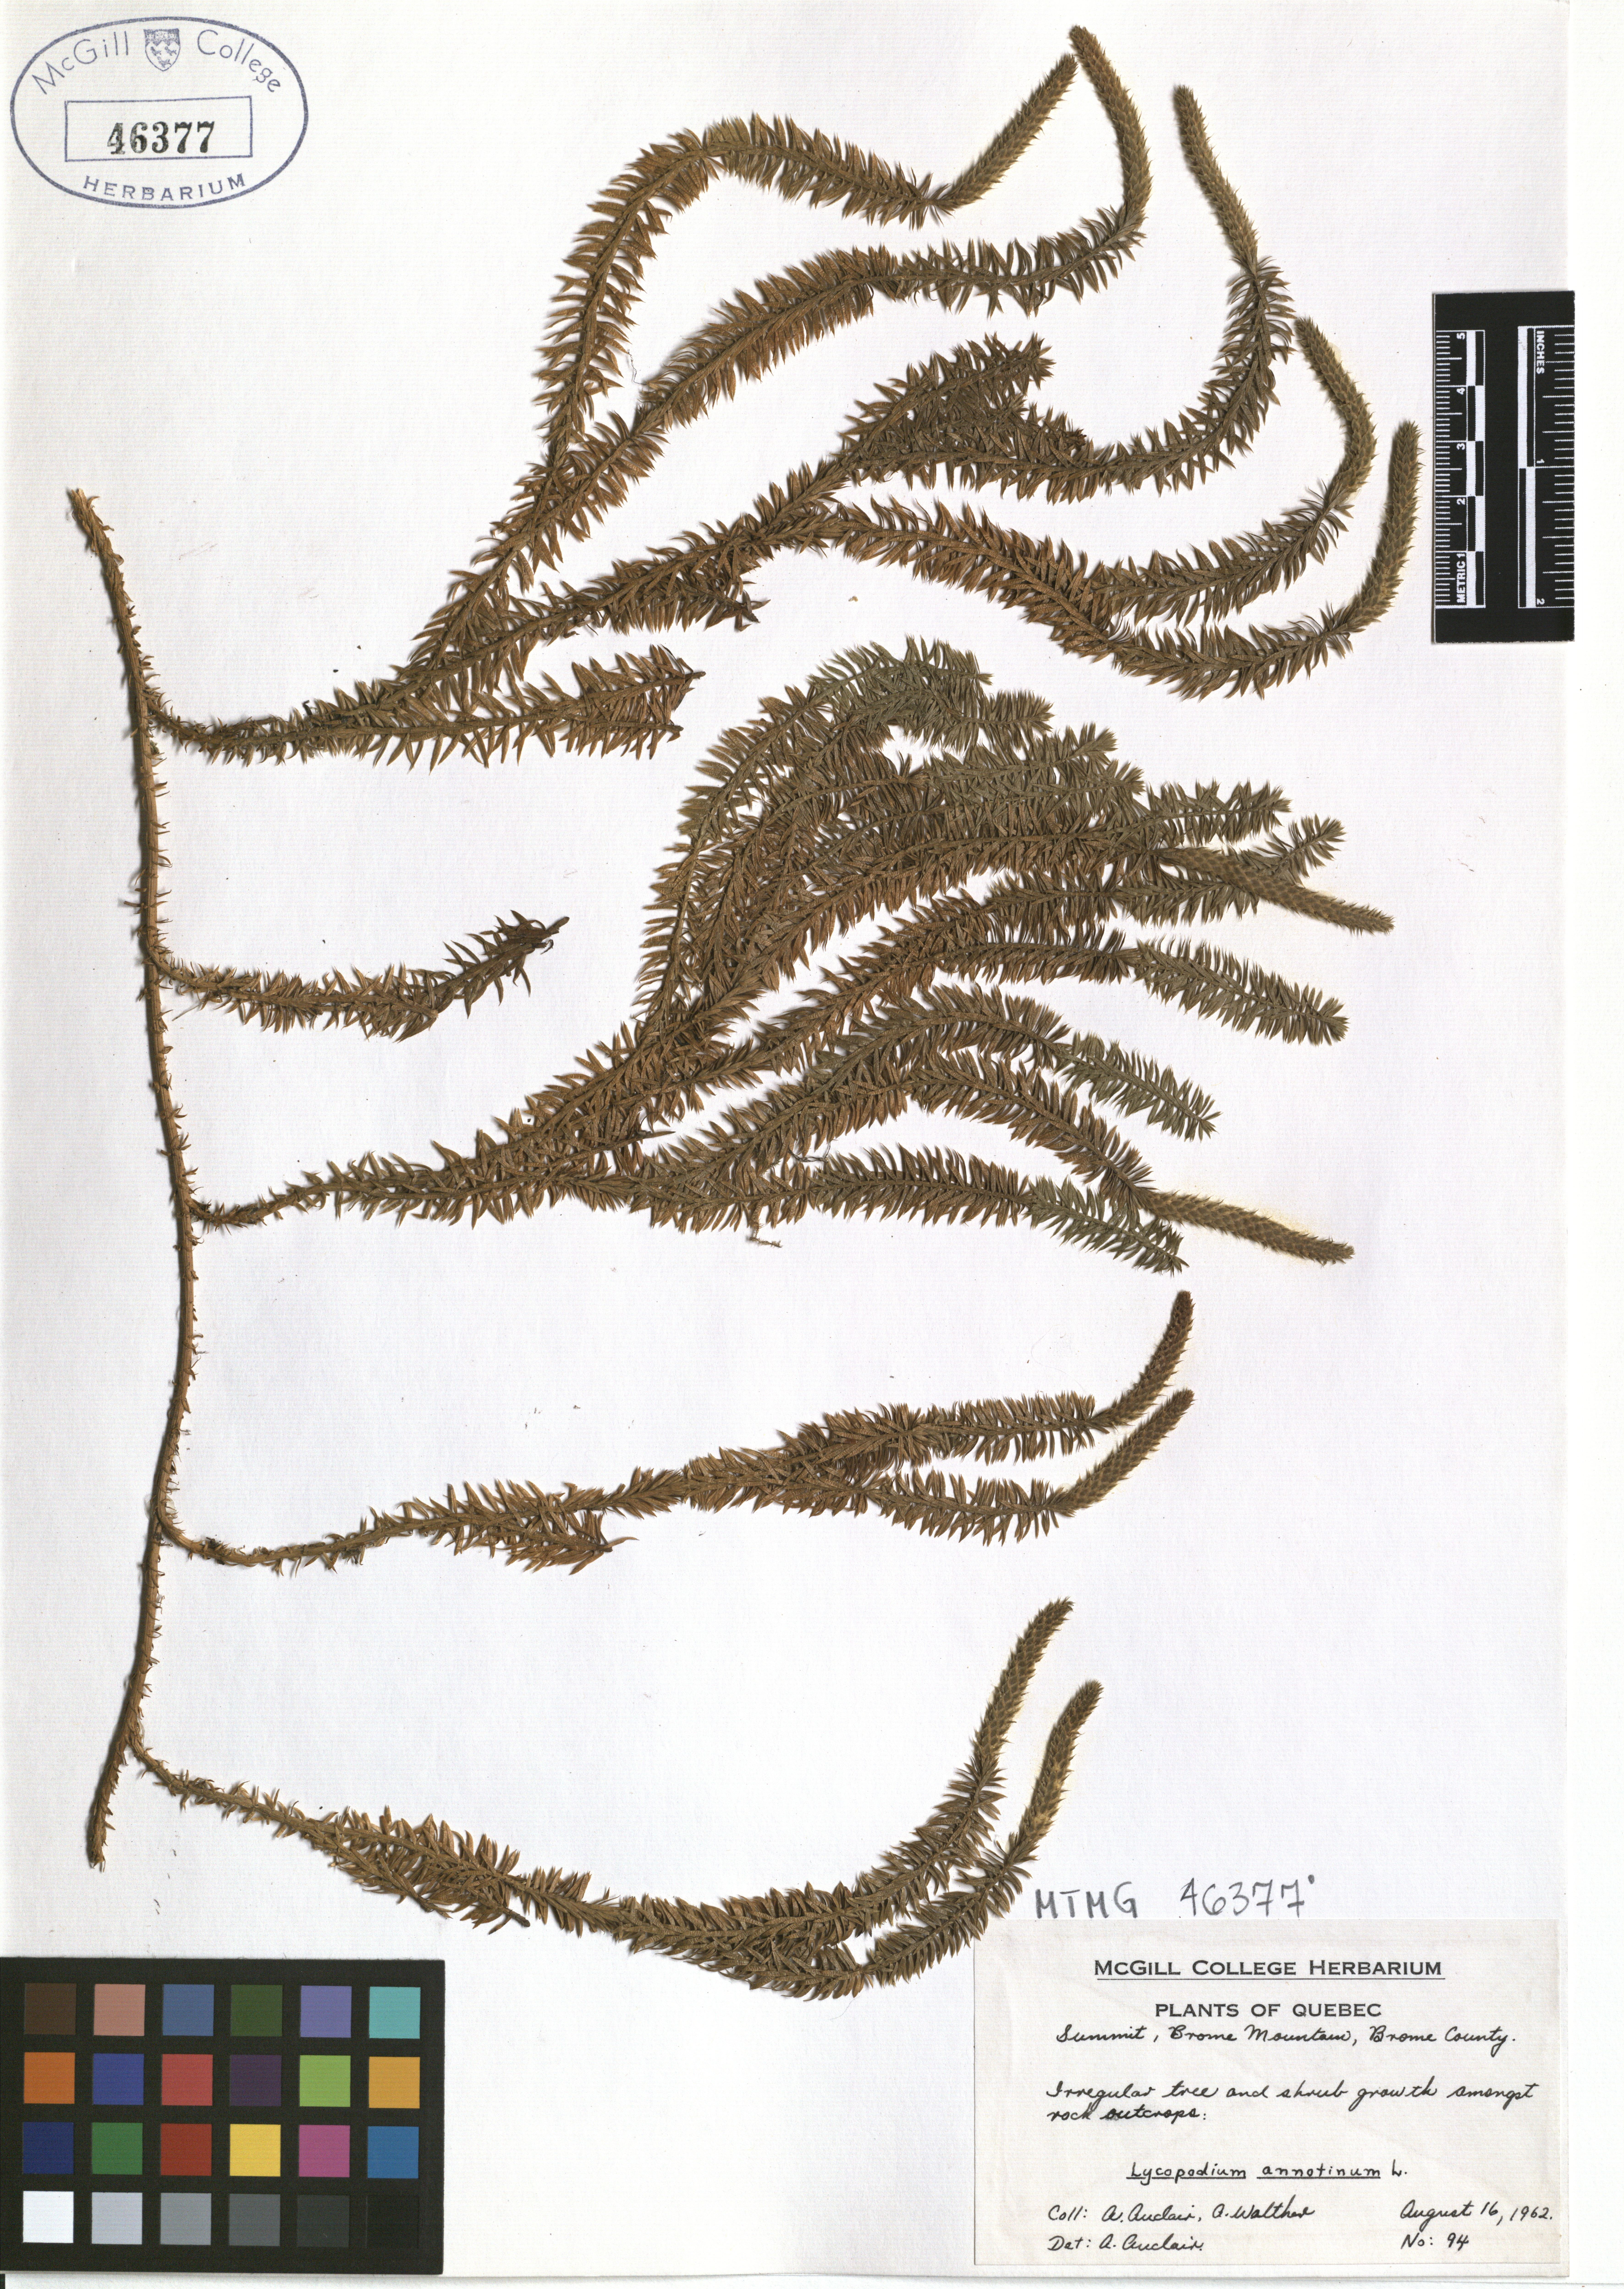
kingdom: Plantae
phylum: Tracheophyta
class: Lycopodiopsida
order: Lycopodiales
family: Lycopodiaceae
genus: Spinulum
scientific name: Spinulum annotinum
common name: Interrupted club-moss
